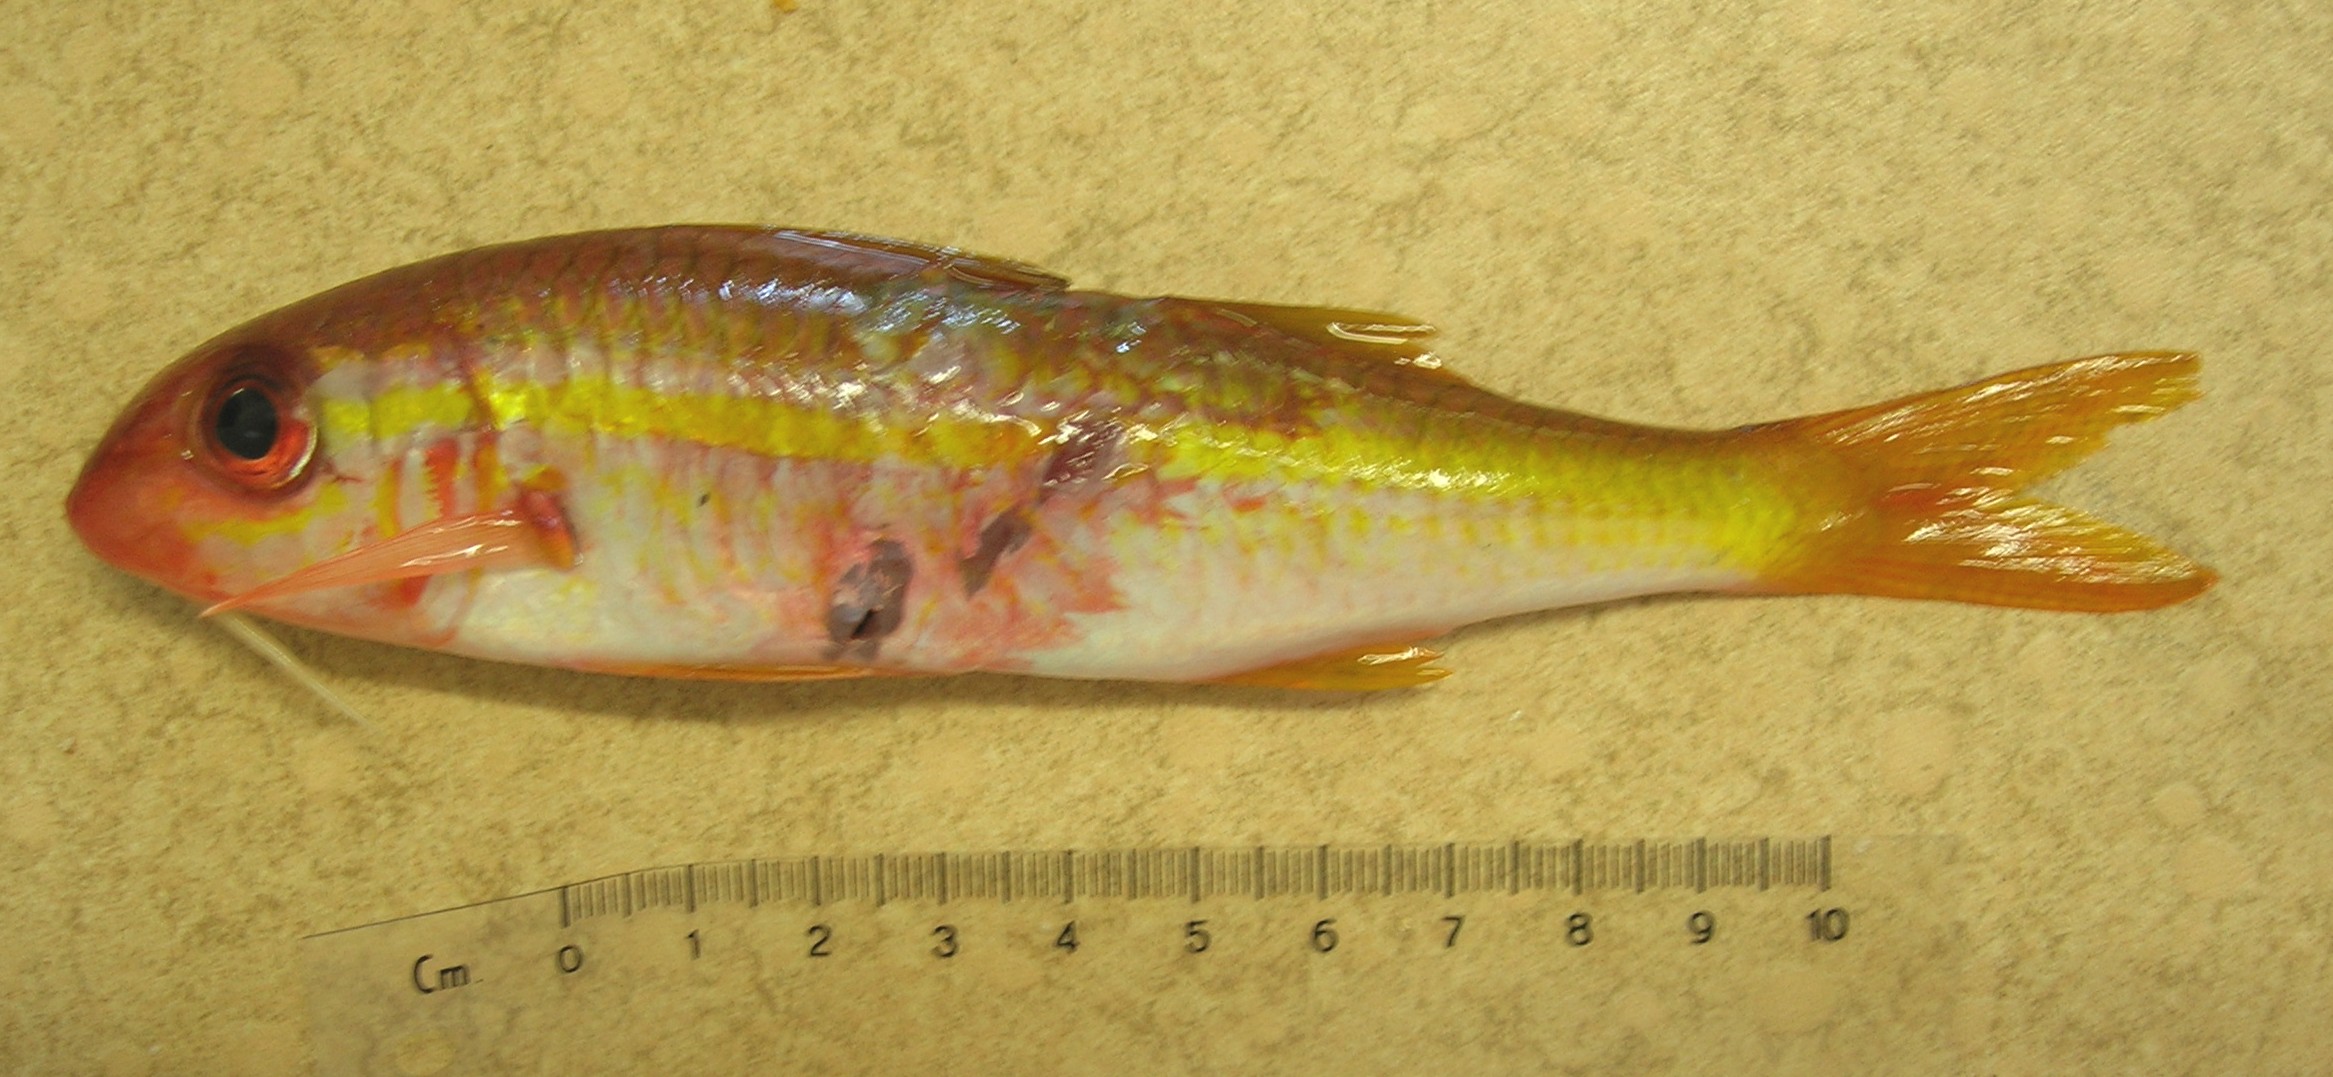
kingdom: Animalia
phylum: Chordata
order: Perciformes
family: Mullidae
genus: Mulloidichthys
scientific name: Mulloidichthys vanicolensis
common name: Yellowfin goatfish
